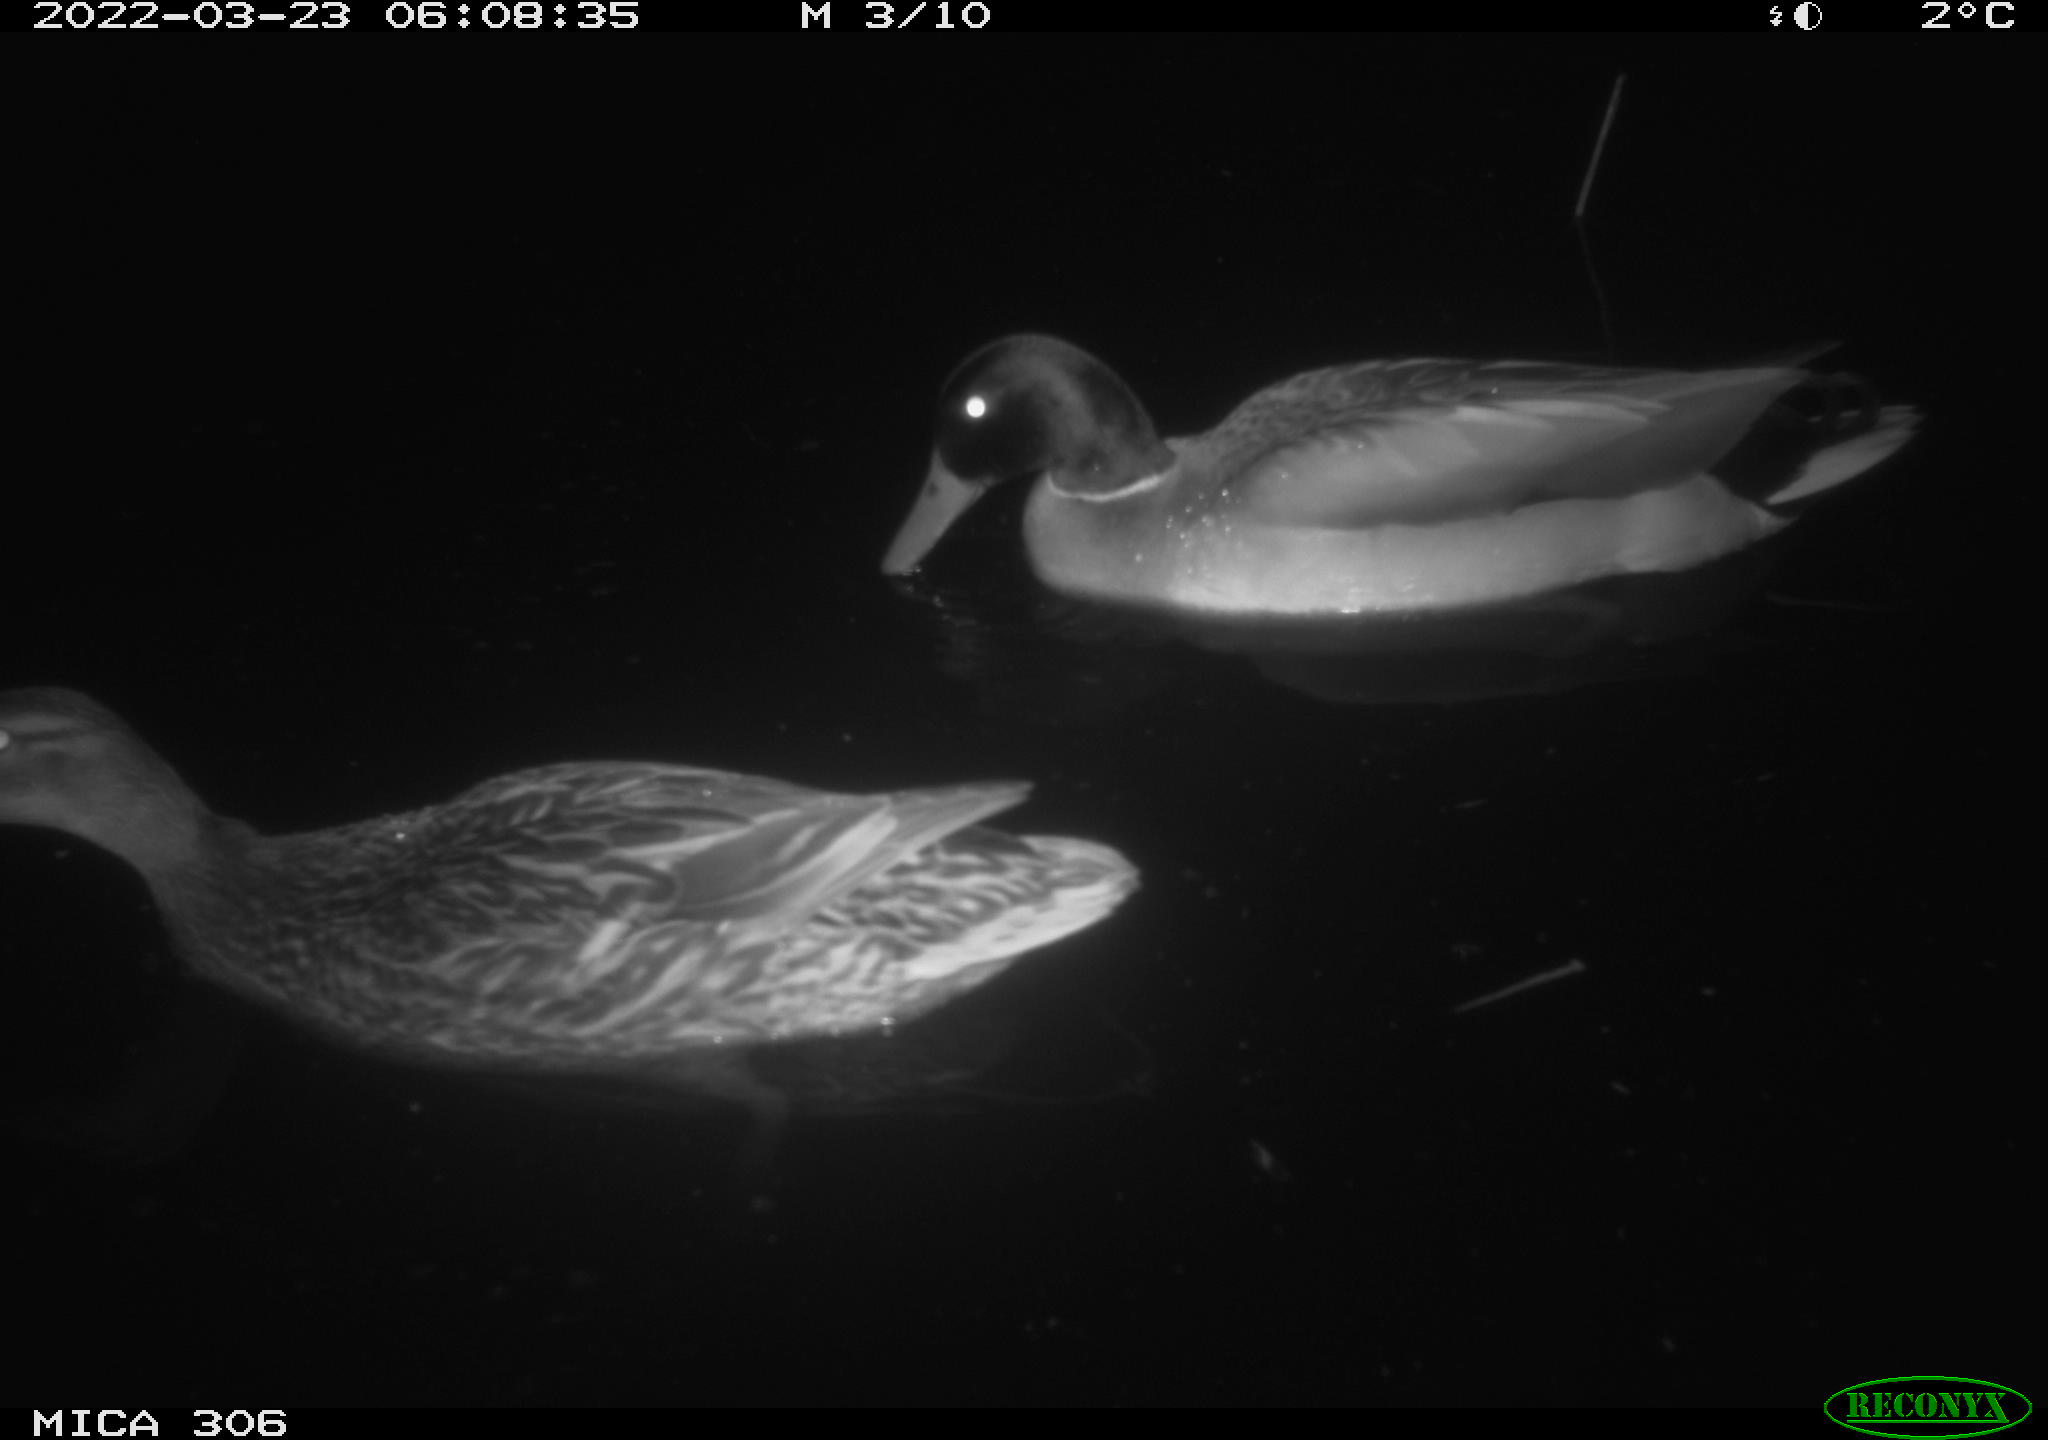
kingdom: Animalia
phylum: Chordata
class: Aves
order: Anseriformes
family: Anatidae
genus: Anas
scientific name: Anas platyrhynchos
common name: Mallard
